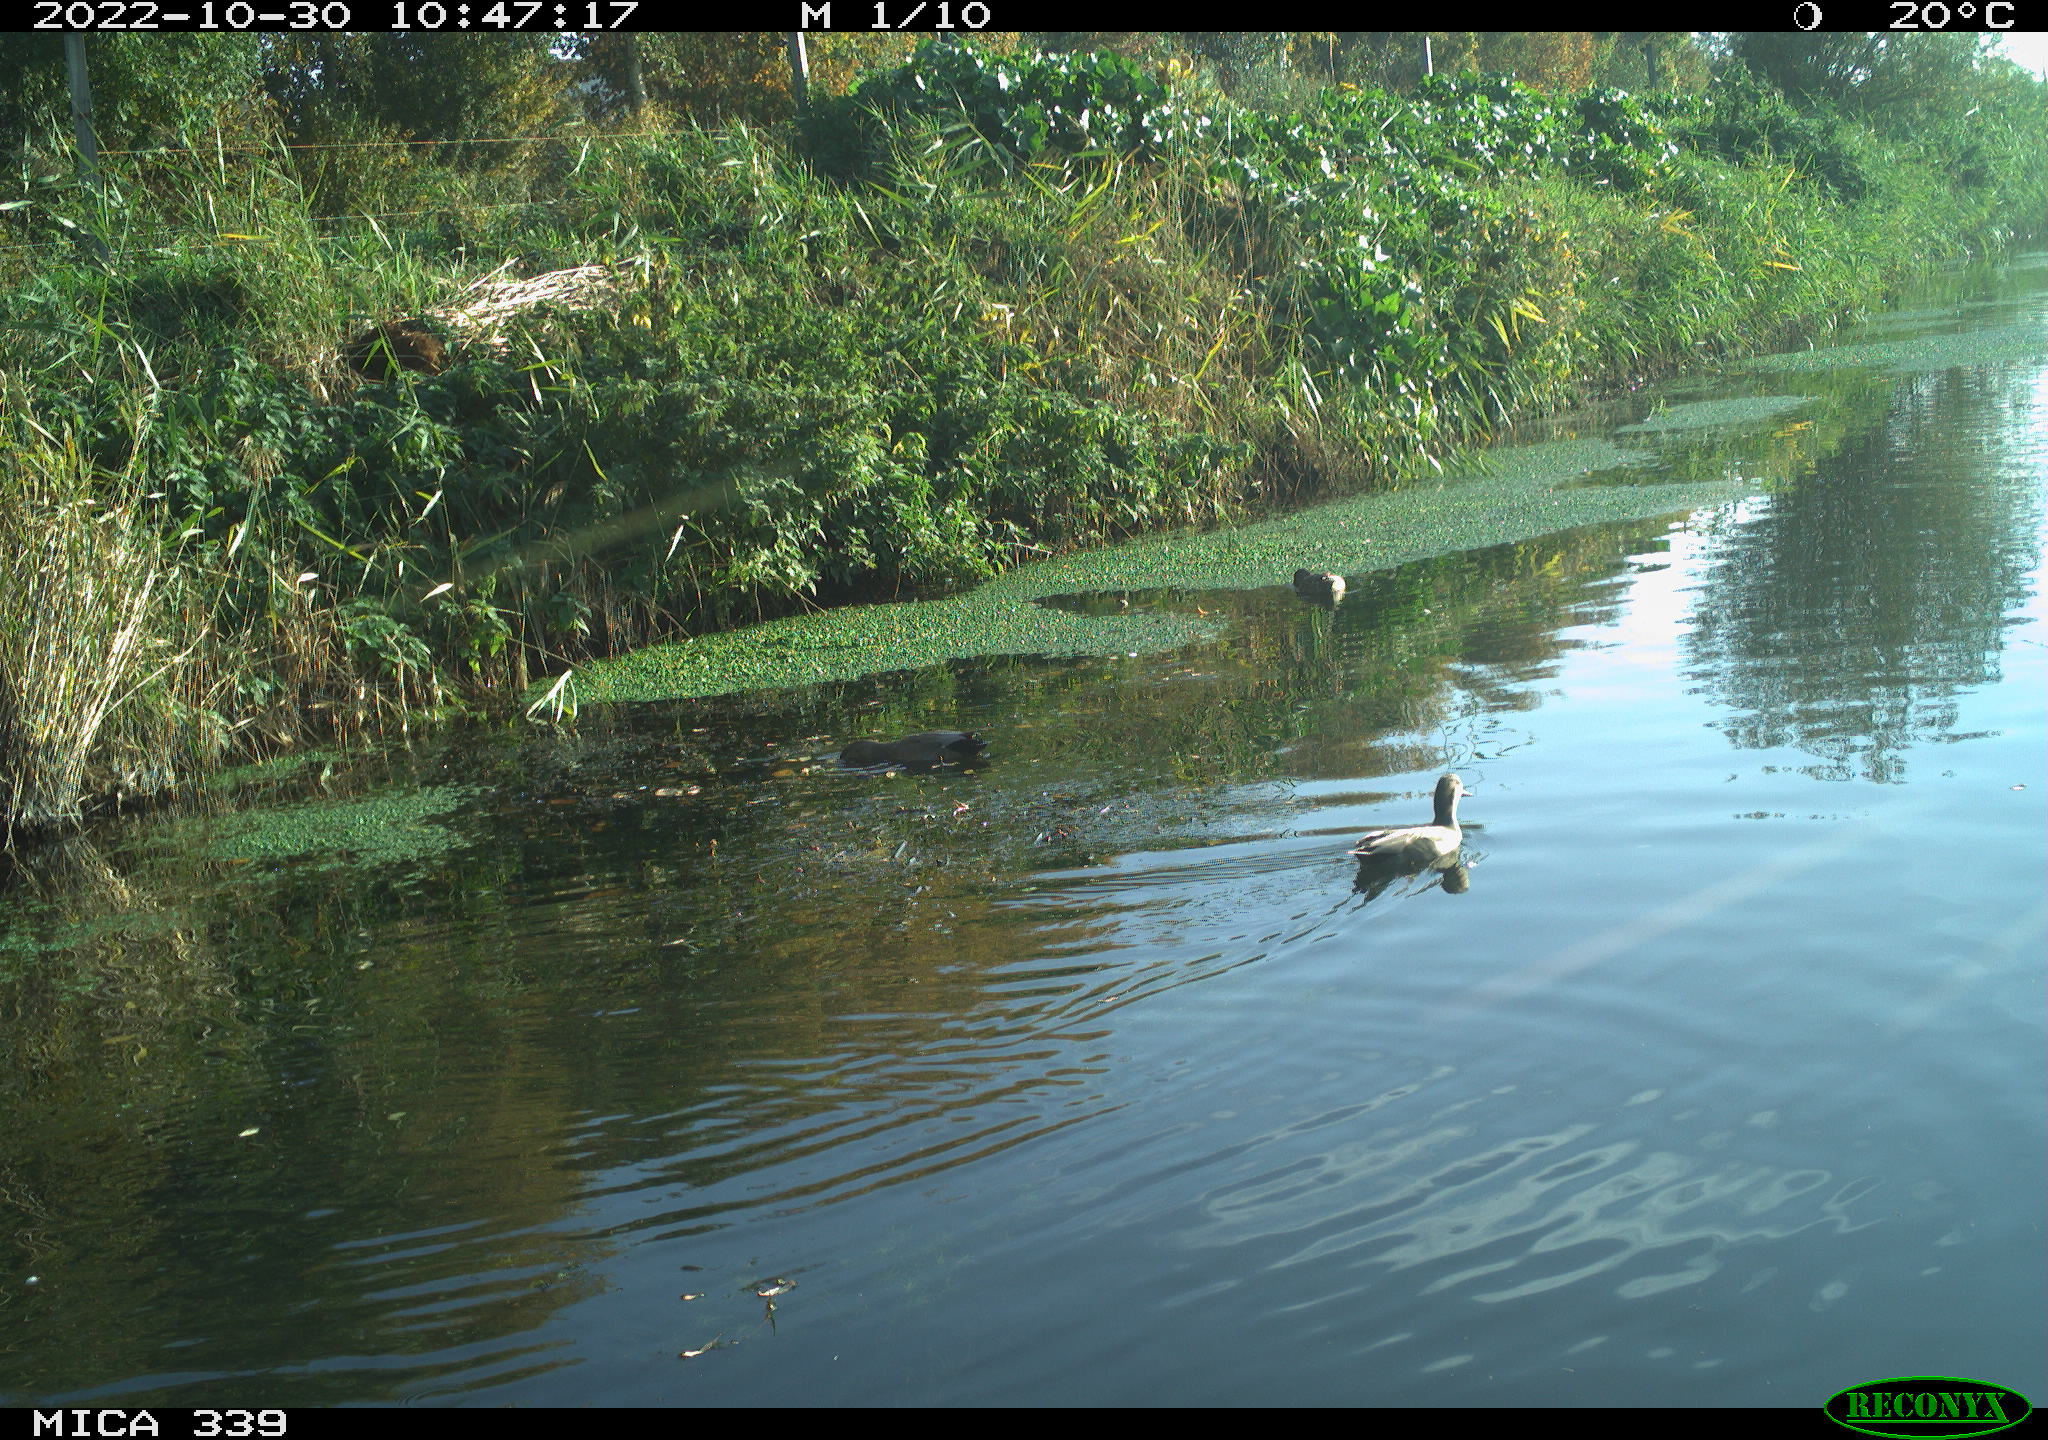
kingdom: Animalia
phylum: Chordata
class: Aves
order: Anseriformes
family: Anatidae
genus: Anas
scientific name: Anas platyrhynchos
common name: Mallard
